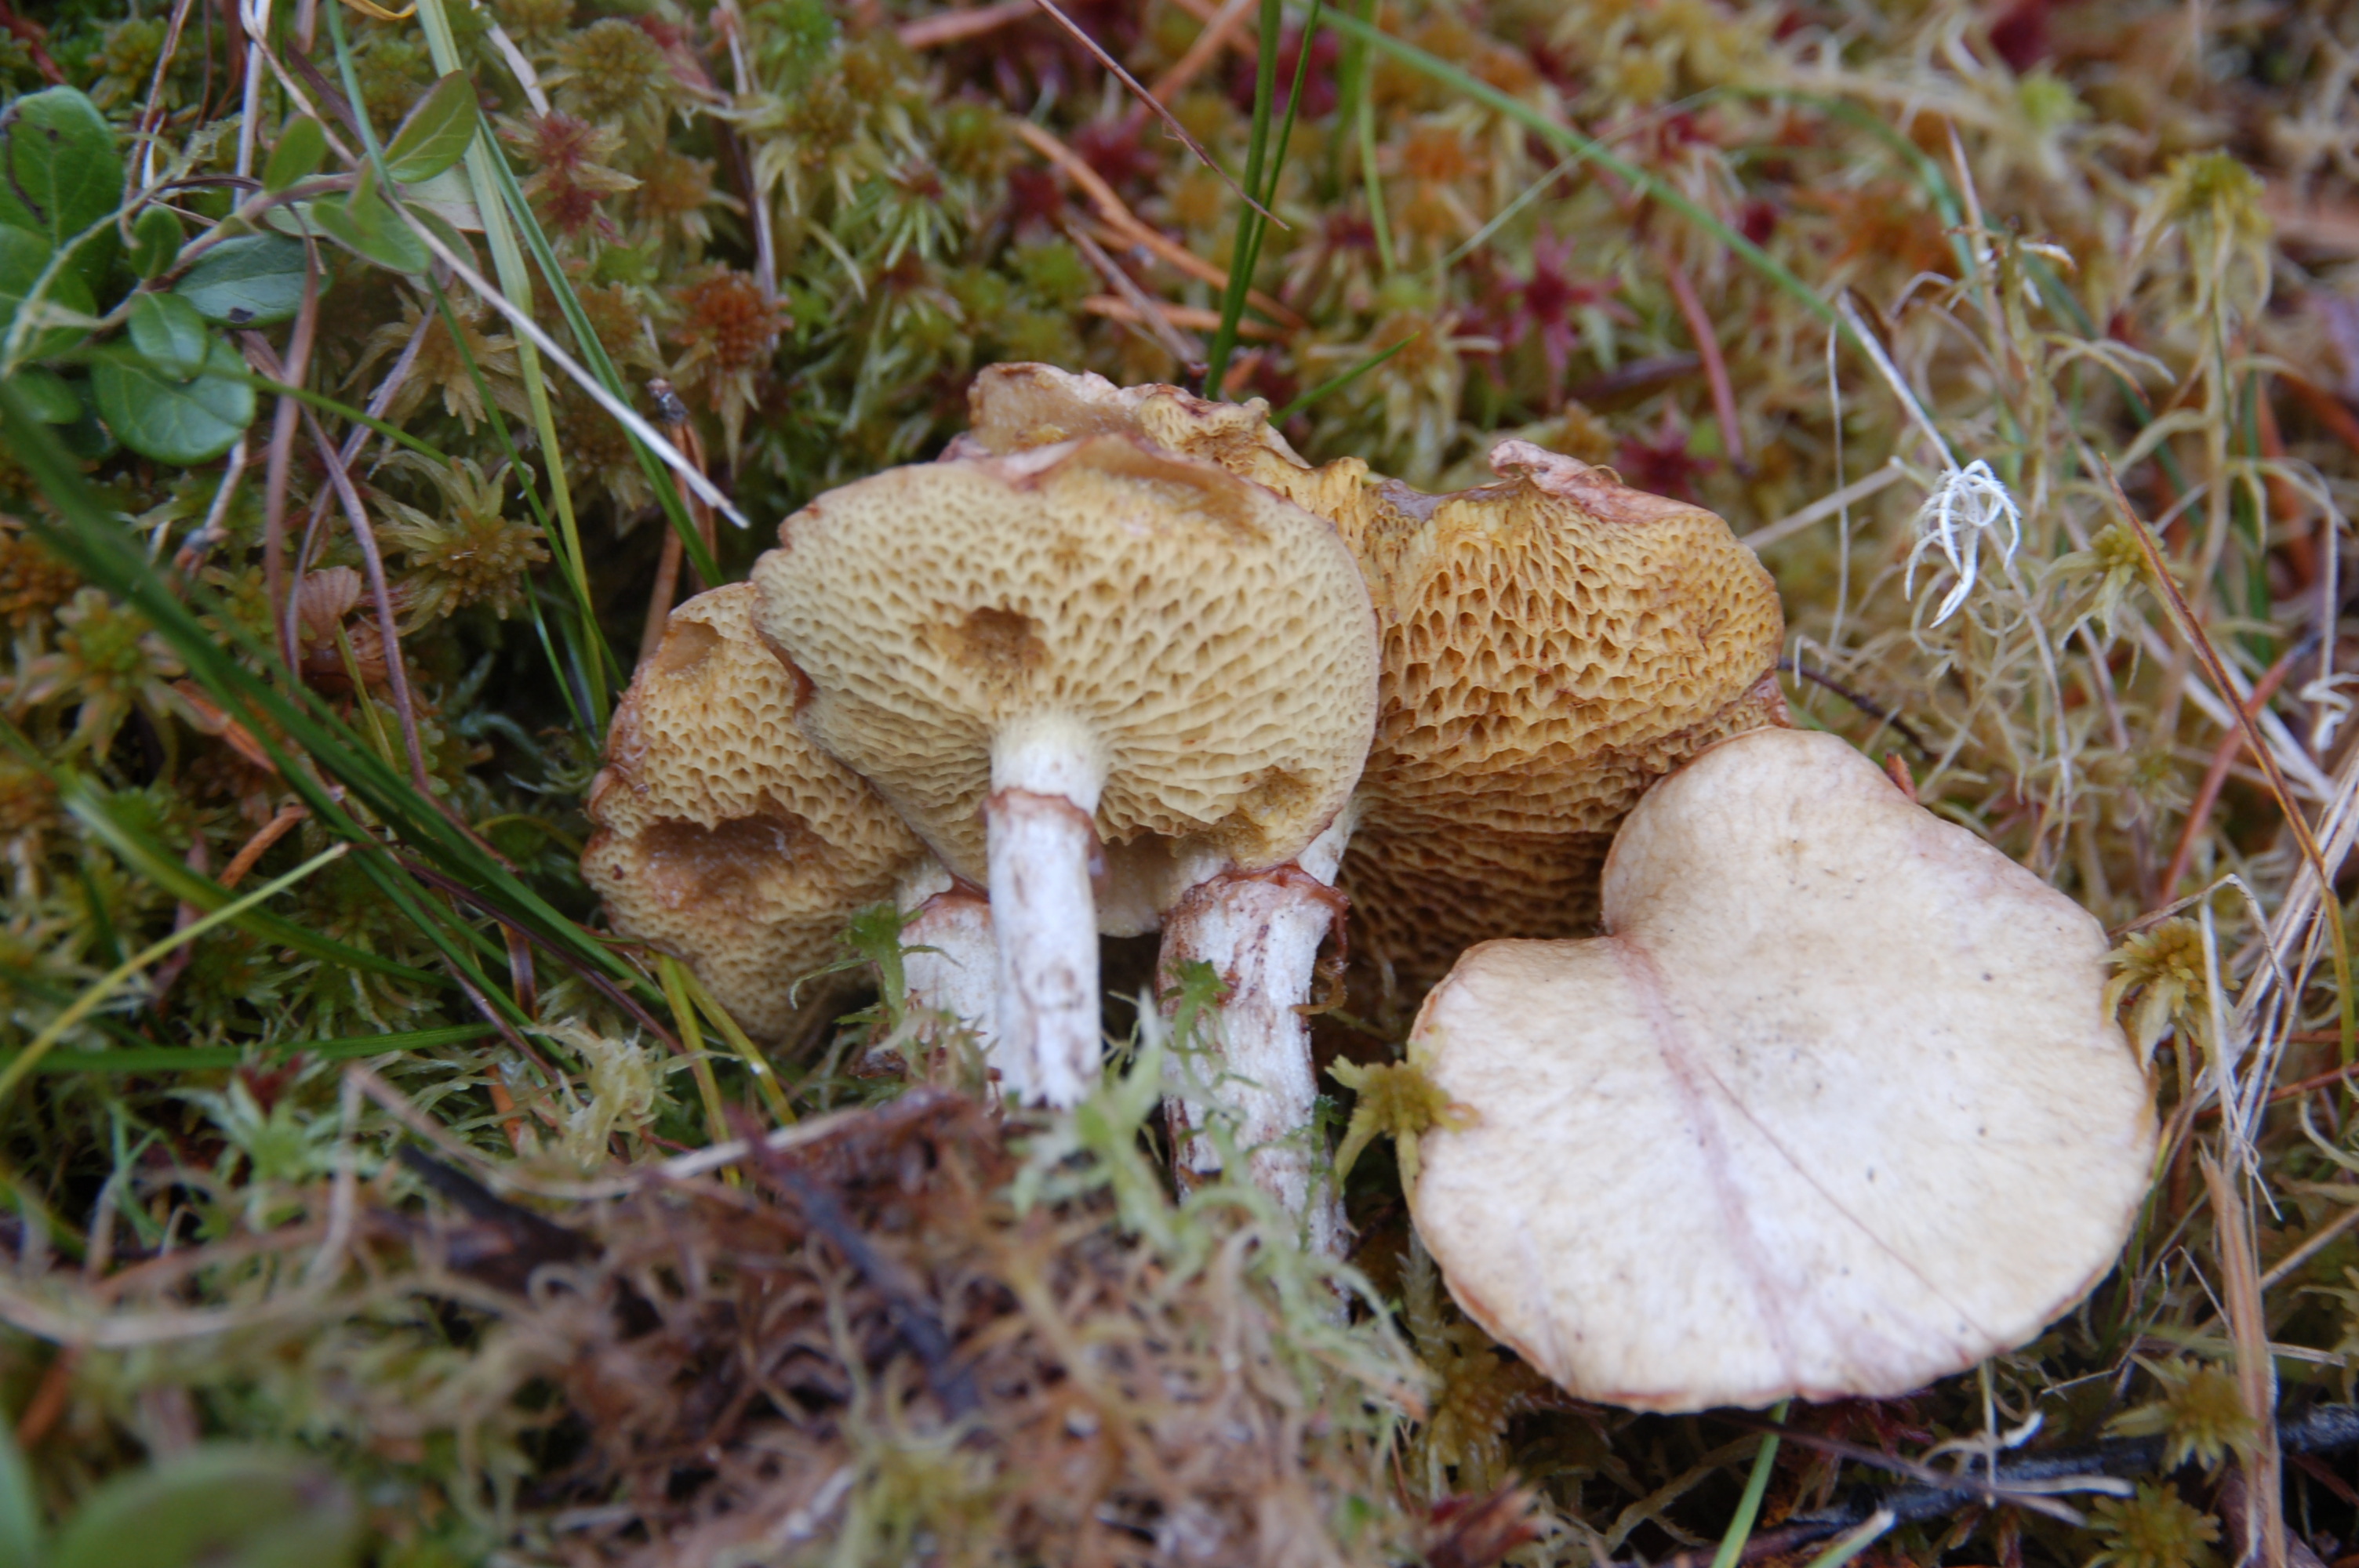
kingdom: Fungi
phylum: Basidiomycota
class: Agaricomycetes
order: Boletales
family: Suillaceae
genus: Suillus
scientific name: Suillus flavidus
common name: Jellied bolete
